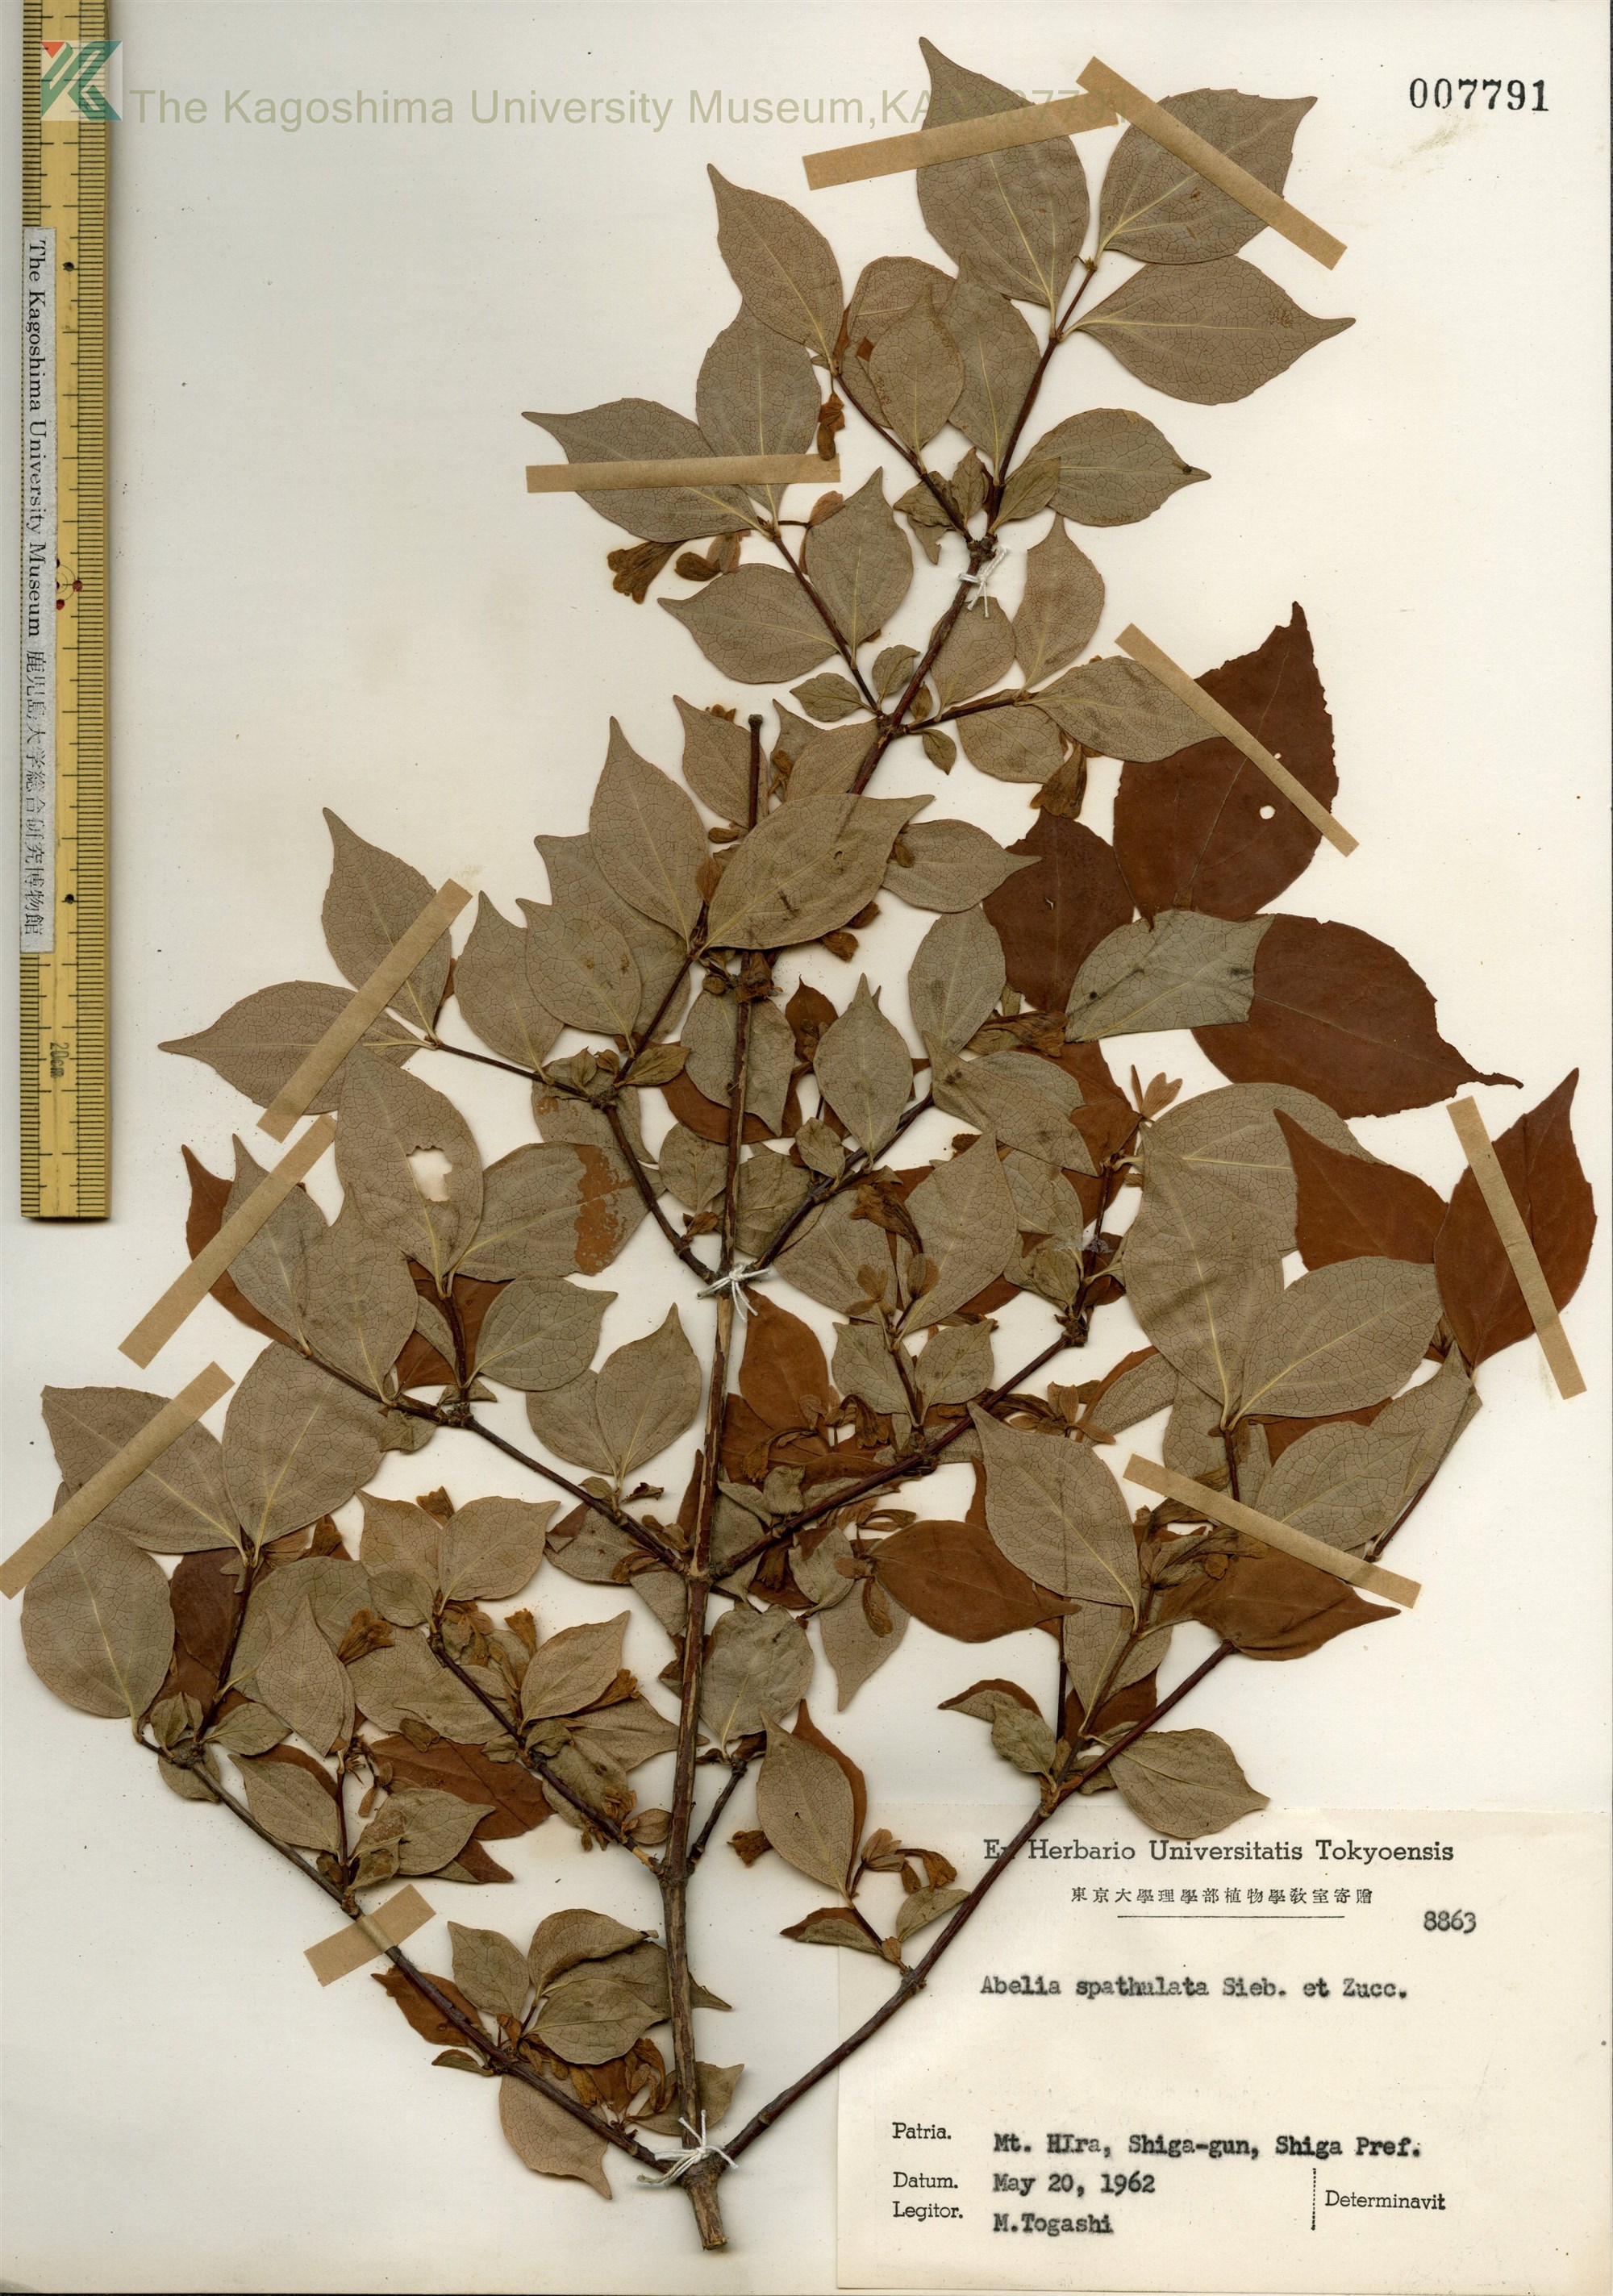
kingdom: Plantae
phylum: Tracheophyta
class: Magnoliopsida
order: Dipsacales
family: Caprifoliaceae
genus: Diabelia
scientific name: Diabelia spathulata
